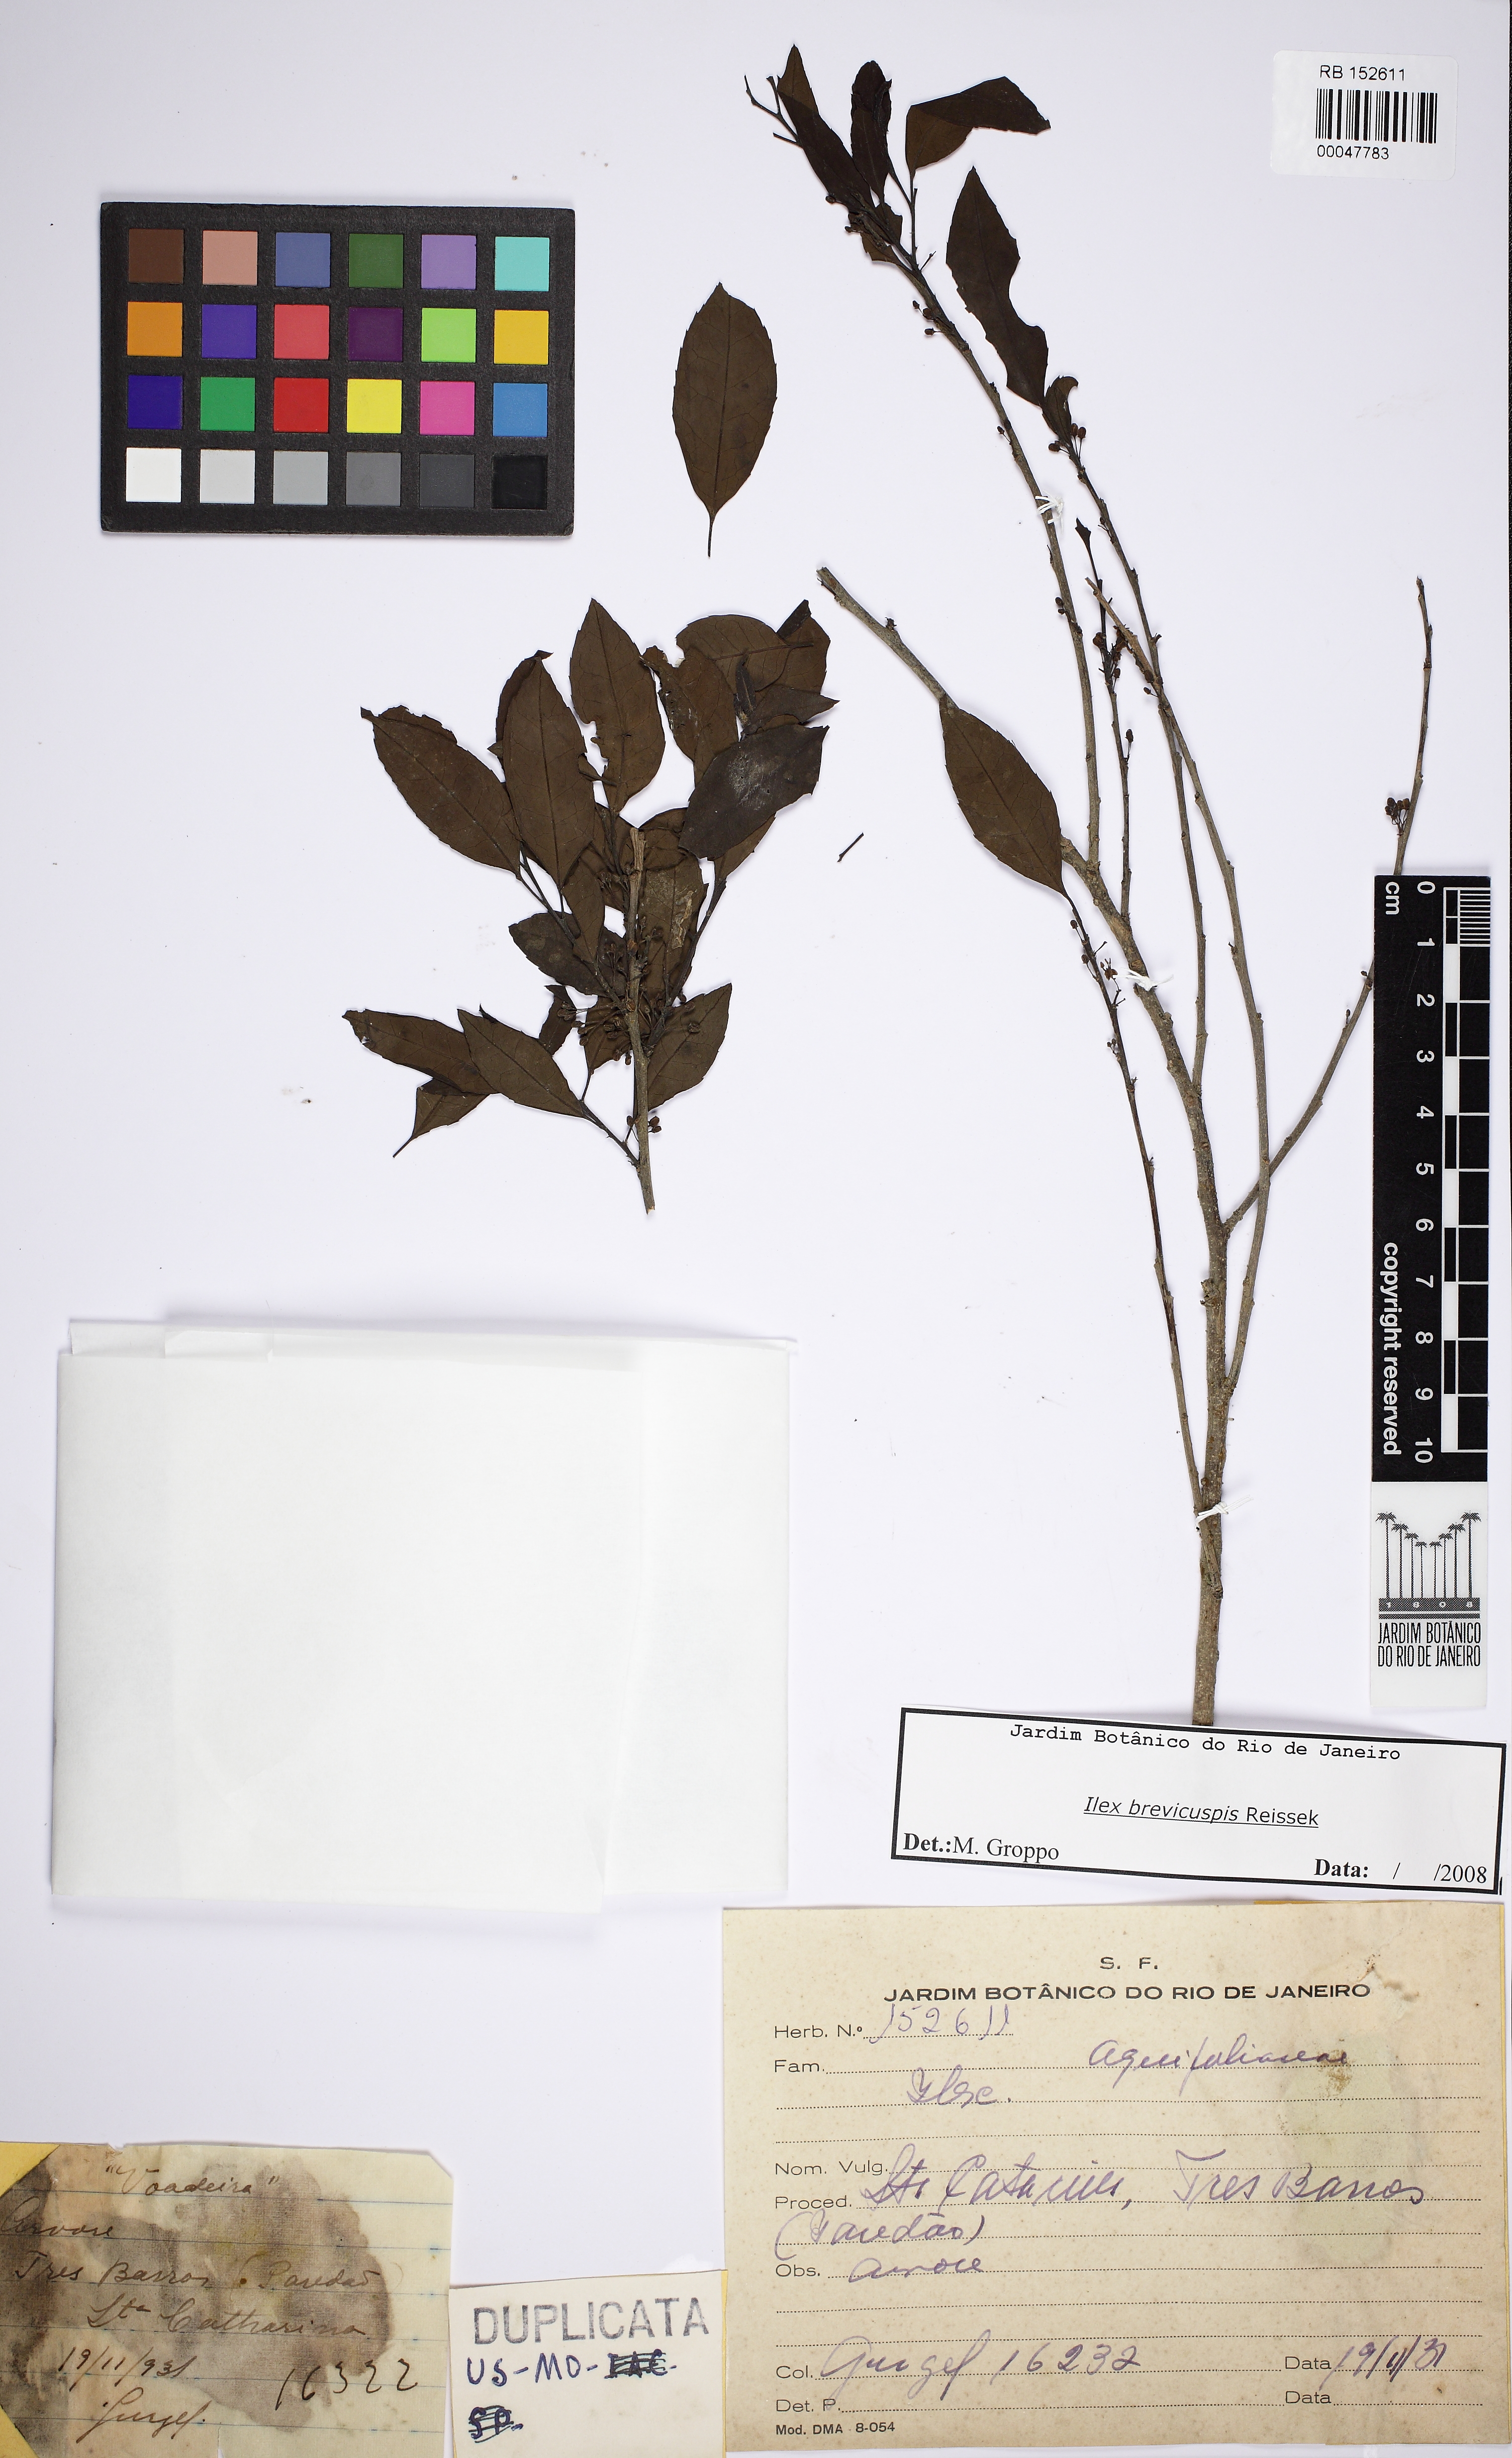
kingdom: Plantae
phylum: Tracheophyta
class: Magnoliopsida
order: Aquifoliales
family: Aquifoliaceae
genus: Ilex
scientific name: Ilex brevicuspis
